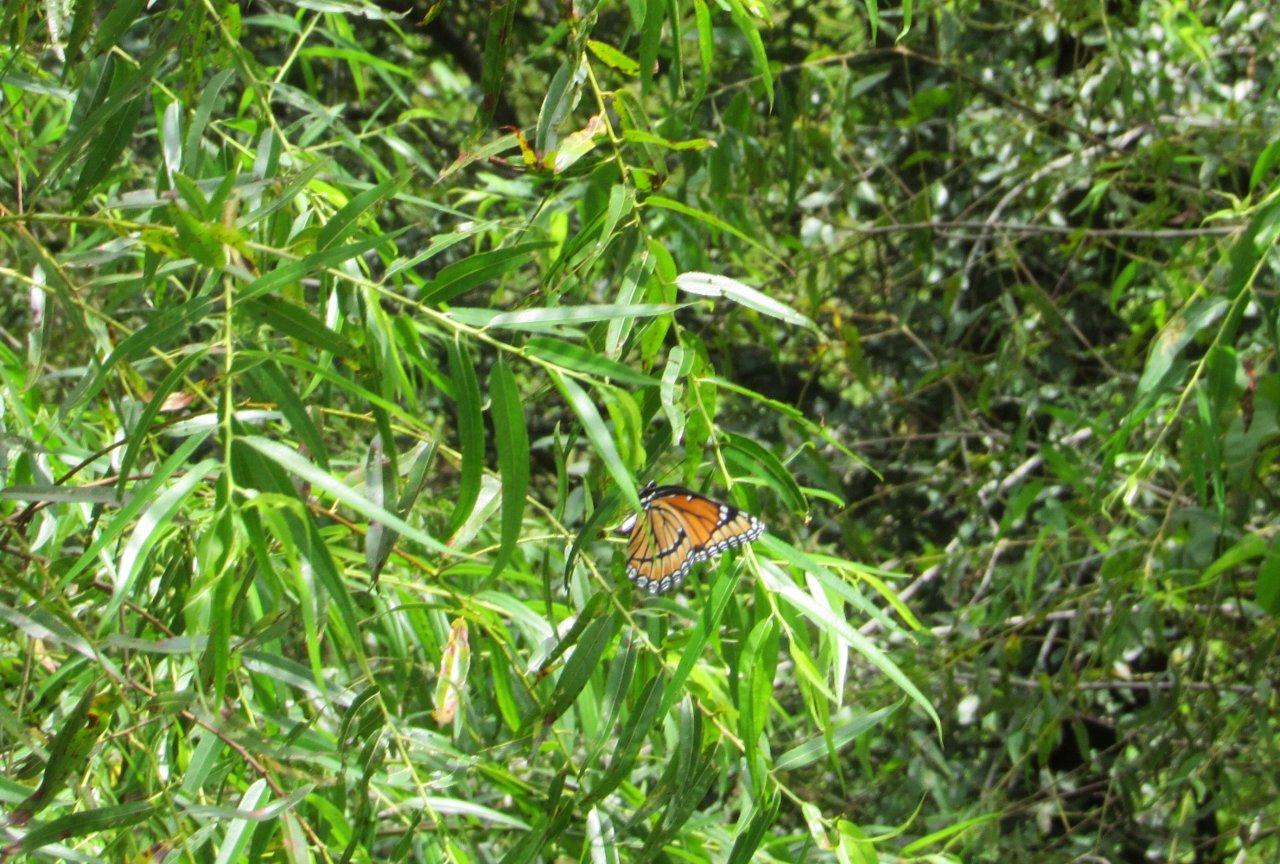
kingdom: Animalia
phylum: Arthropoda
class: Insecta
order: Lepidoptera
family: Nymphalidae
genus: Limenitis
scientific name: Limenitis archippus
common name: Viceroy
